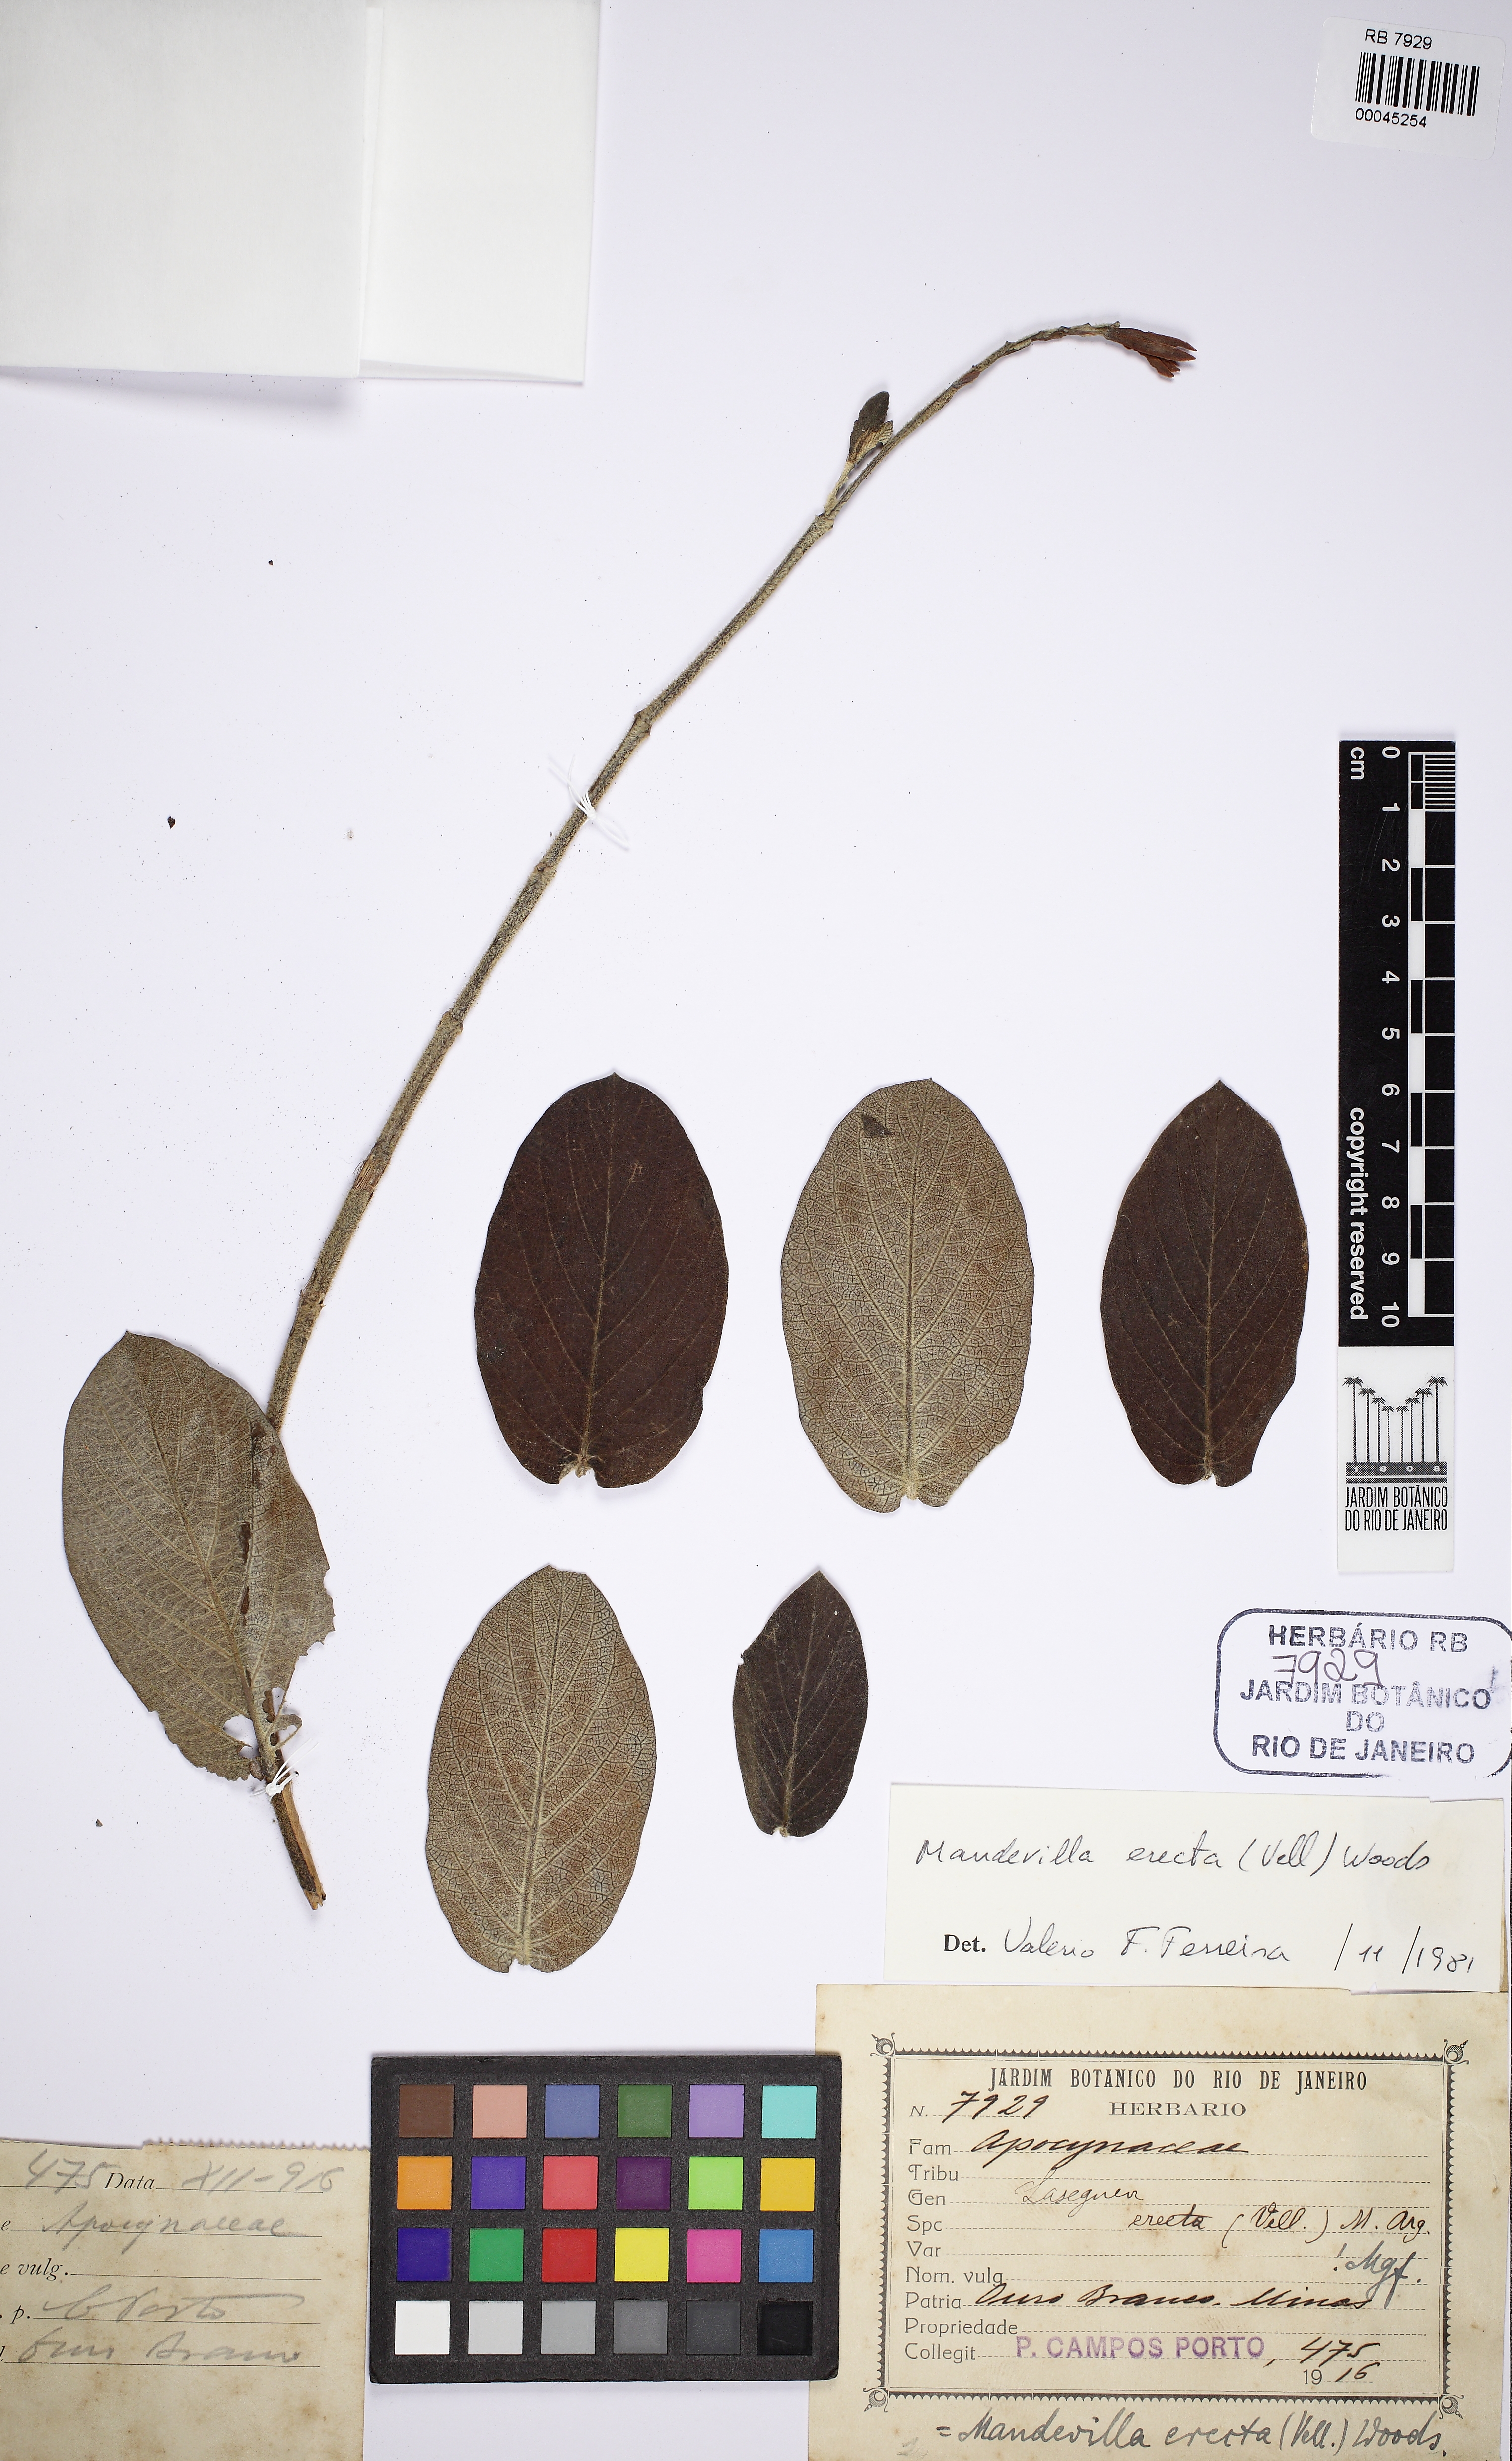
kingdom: Plantae
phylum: Tracheophyta
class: Magnoliopsida
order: Gentianales
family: Apocynaceae
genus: Mandevilla
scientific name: Mandevilla emarginata
